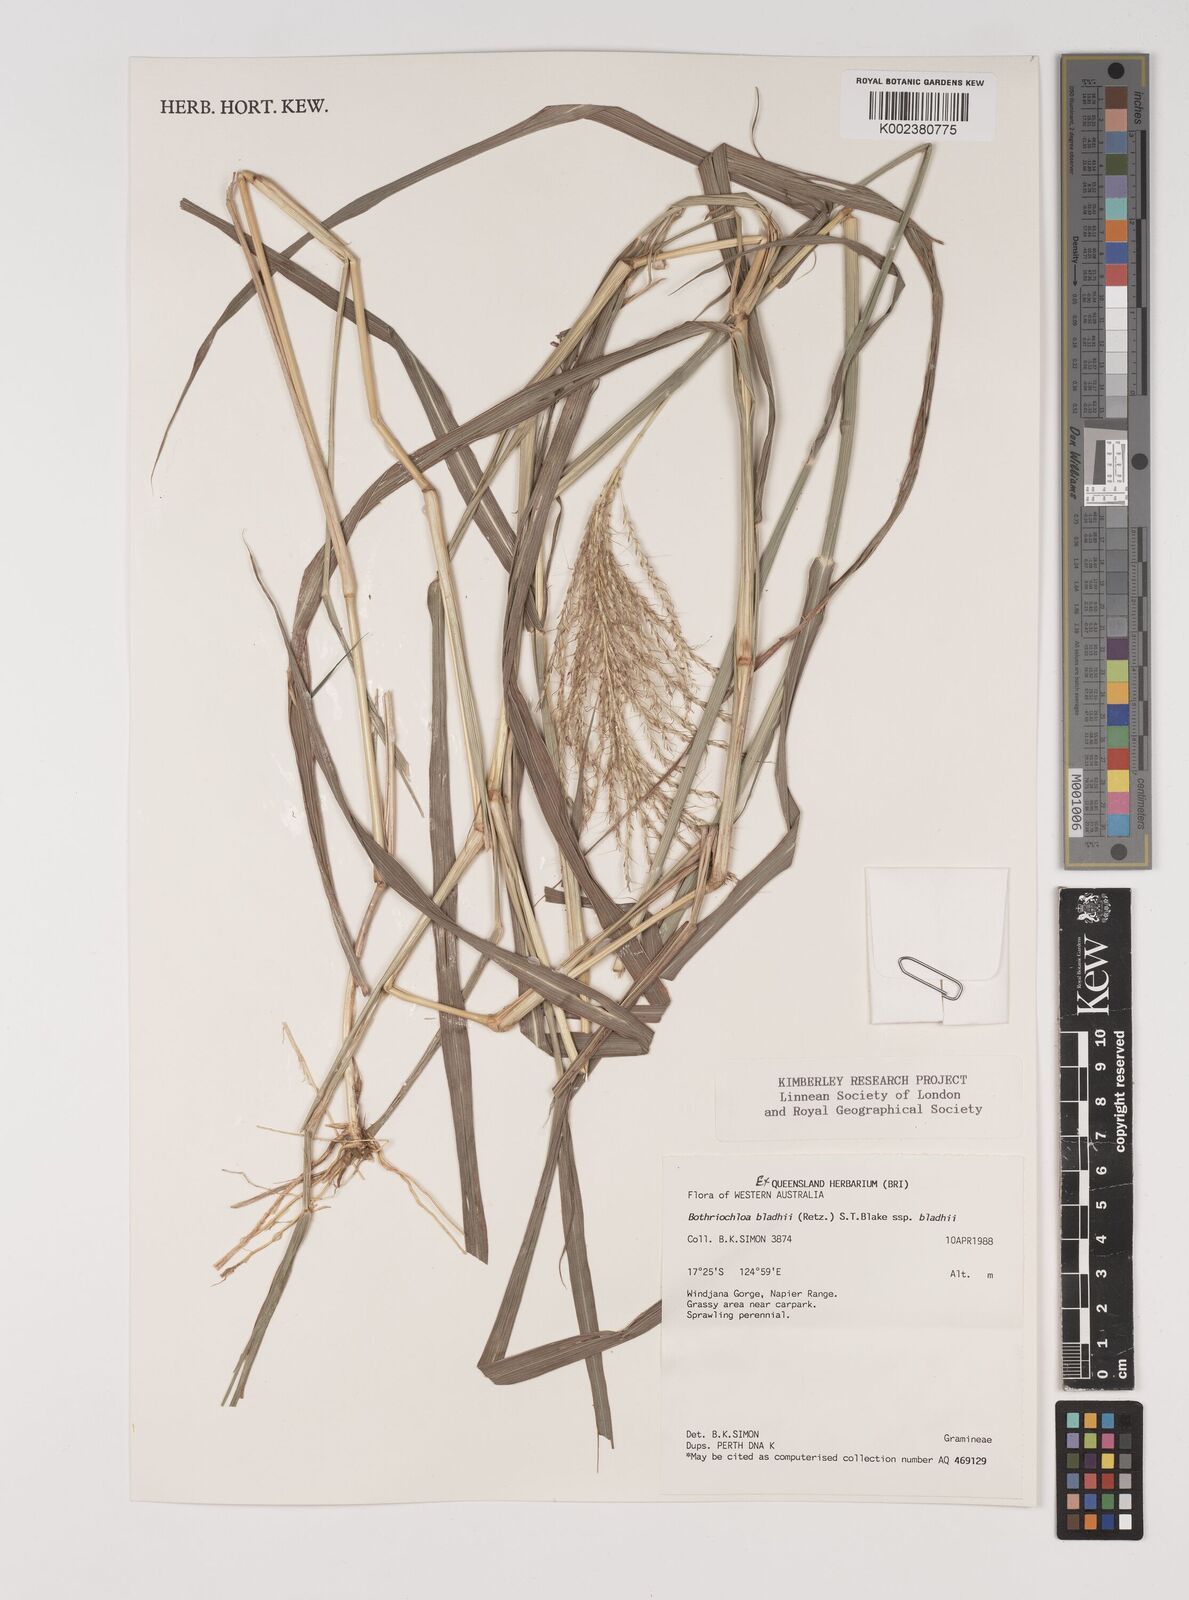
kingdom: Plantae
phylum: Tracheophyta
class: Liliopsida
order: Poales
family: Poaceae
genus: Bothriochloa
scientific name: Bothriochloa bladhii
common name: Caucasian bluestem
